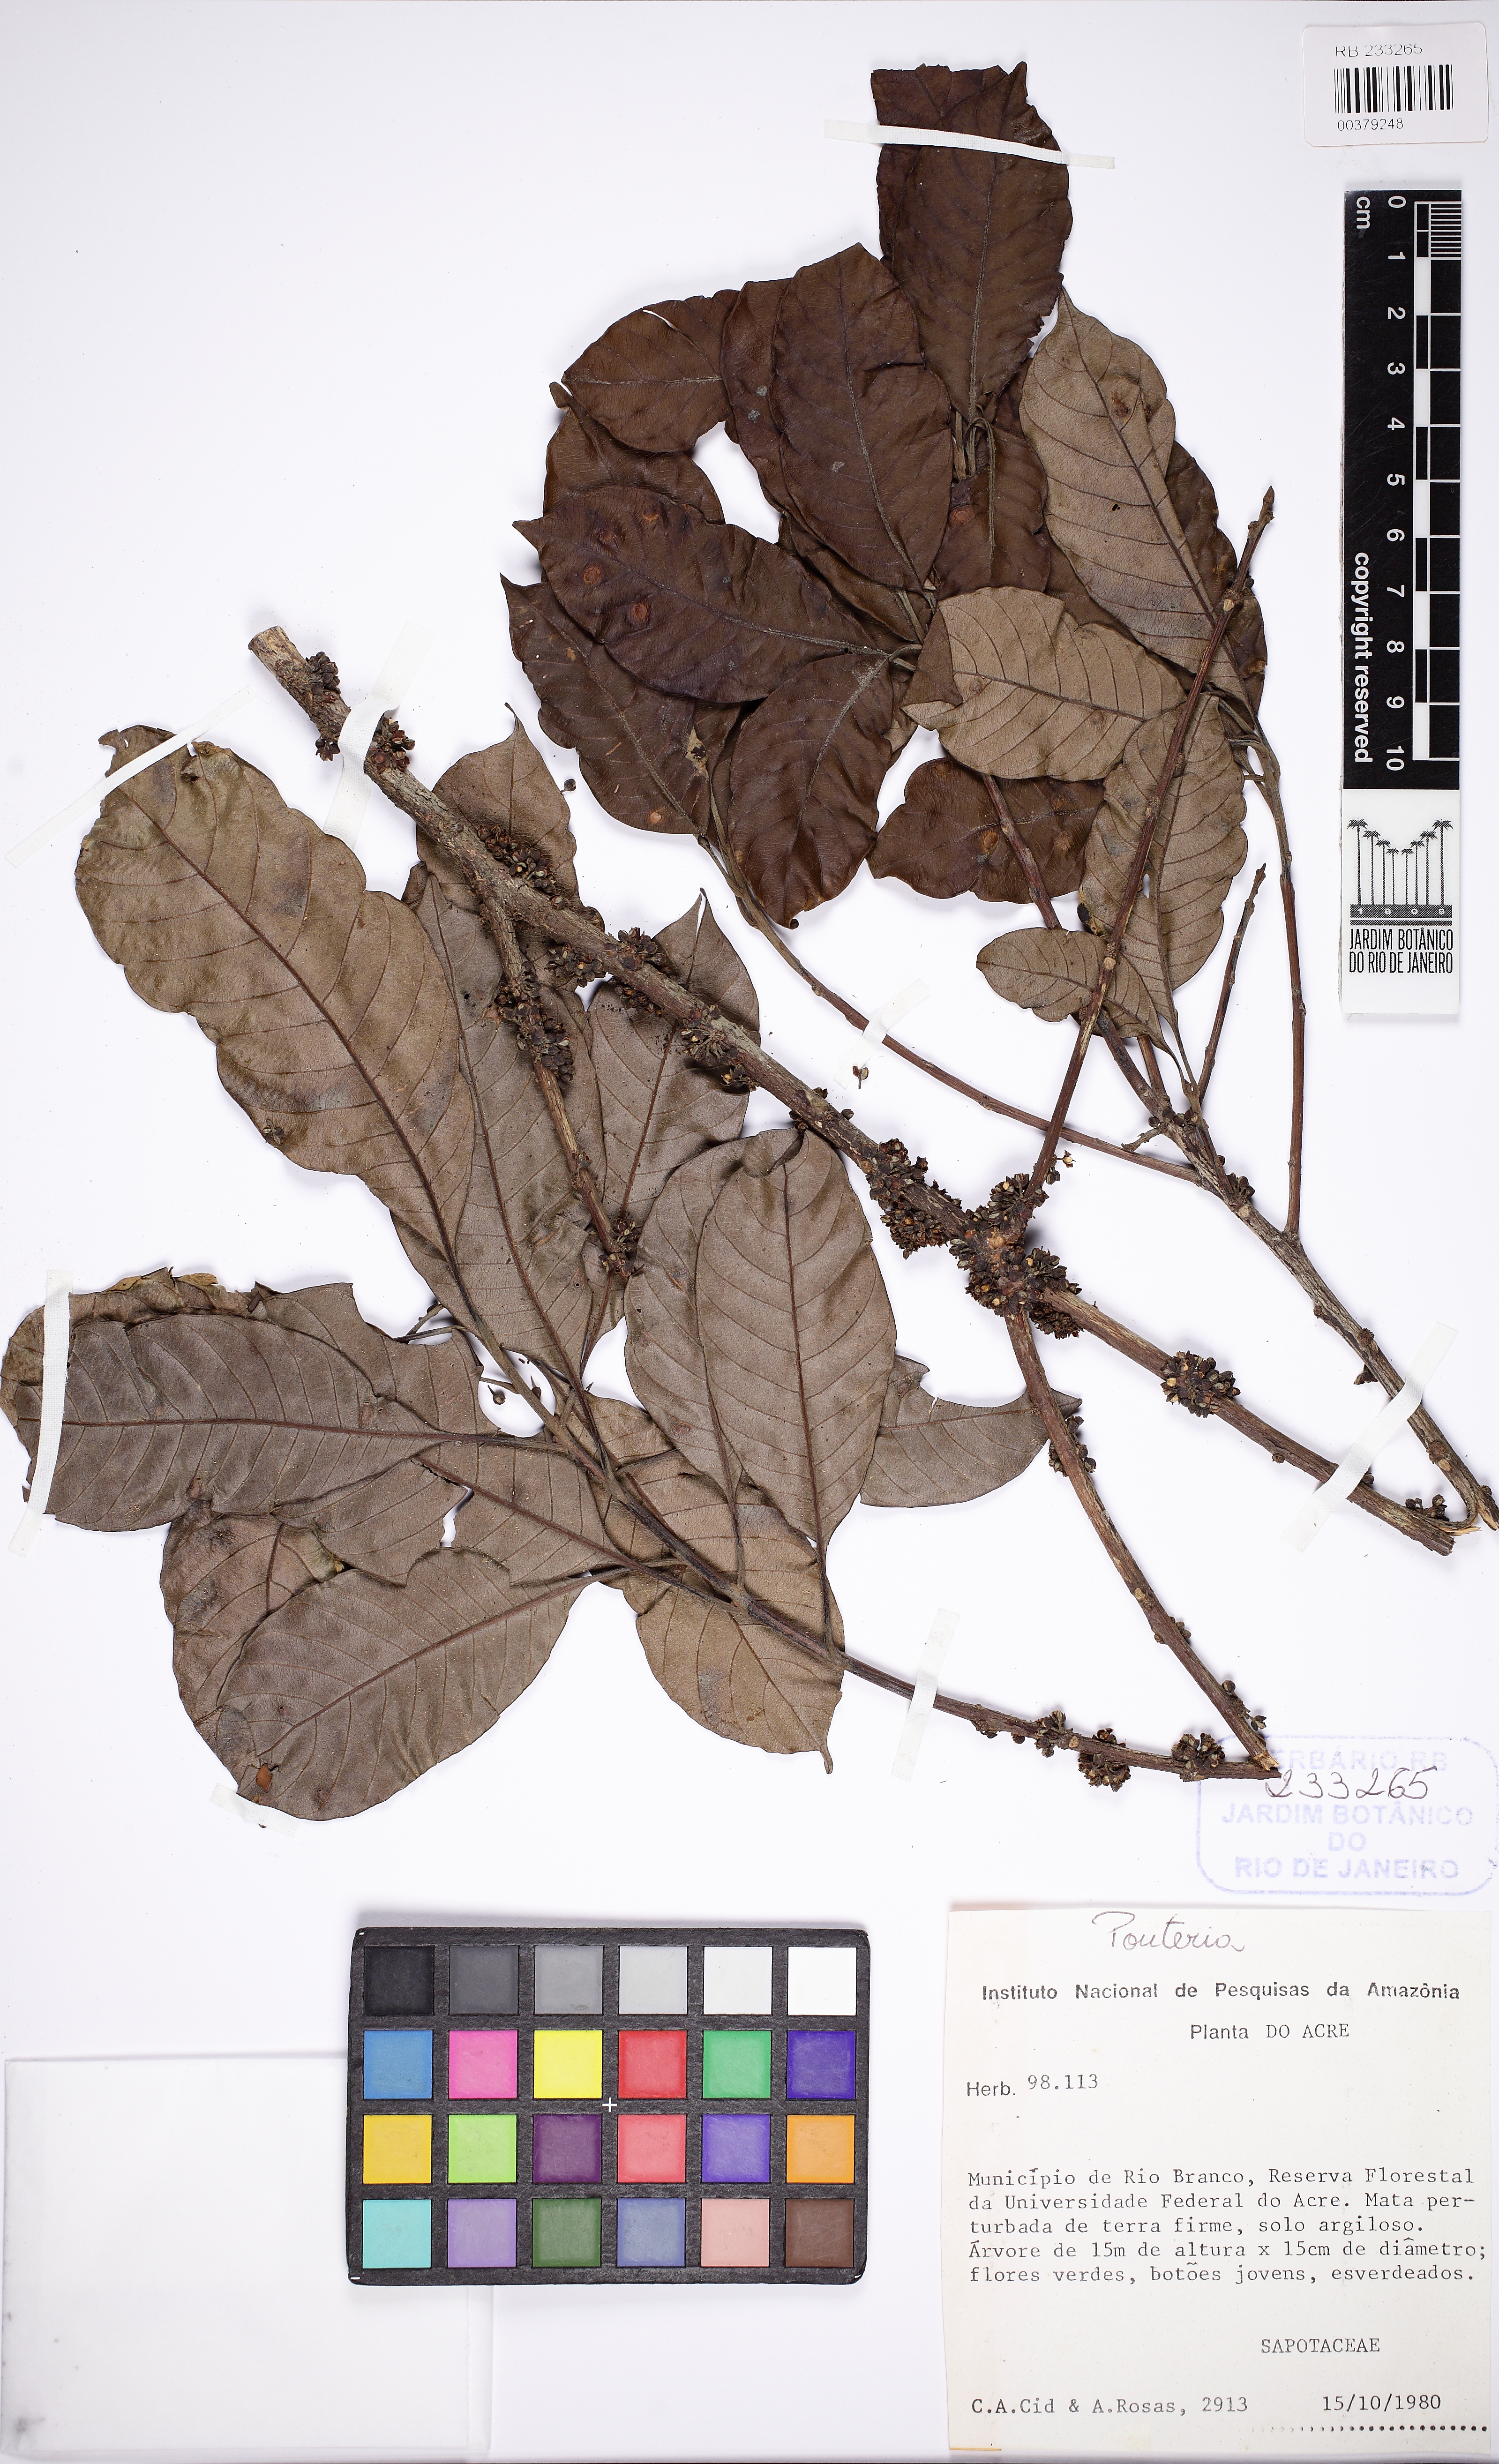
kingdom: Plantae
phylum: Tracheophyta
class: Magnoliopsida
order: Ericales
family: Sapotaceae
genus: Pouteria
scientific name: Pouteria glomerata
